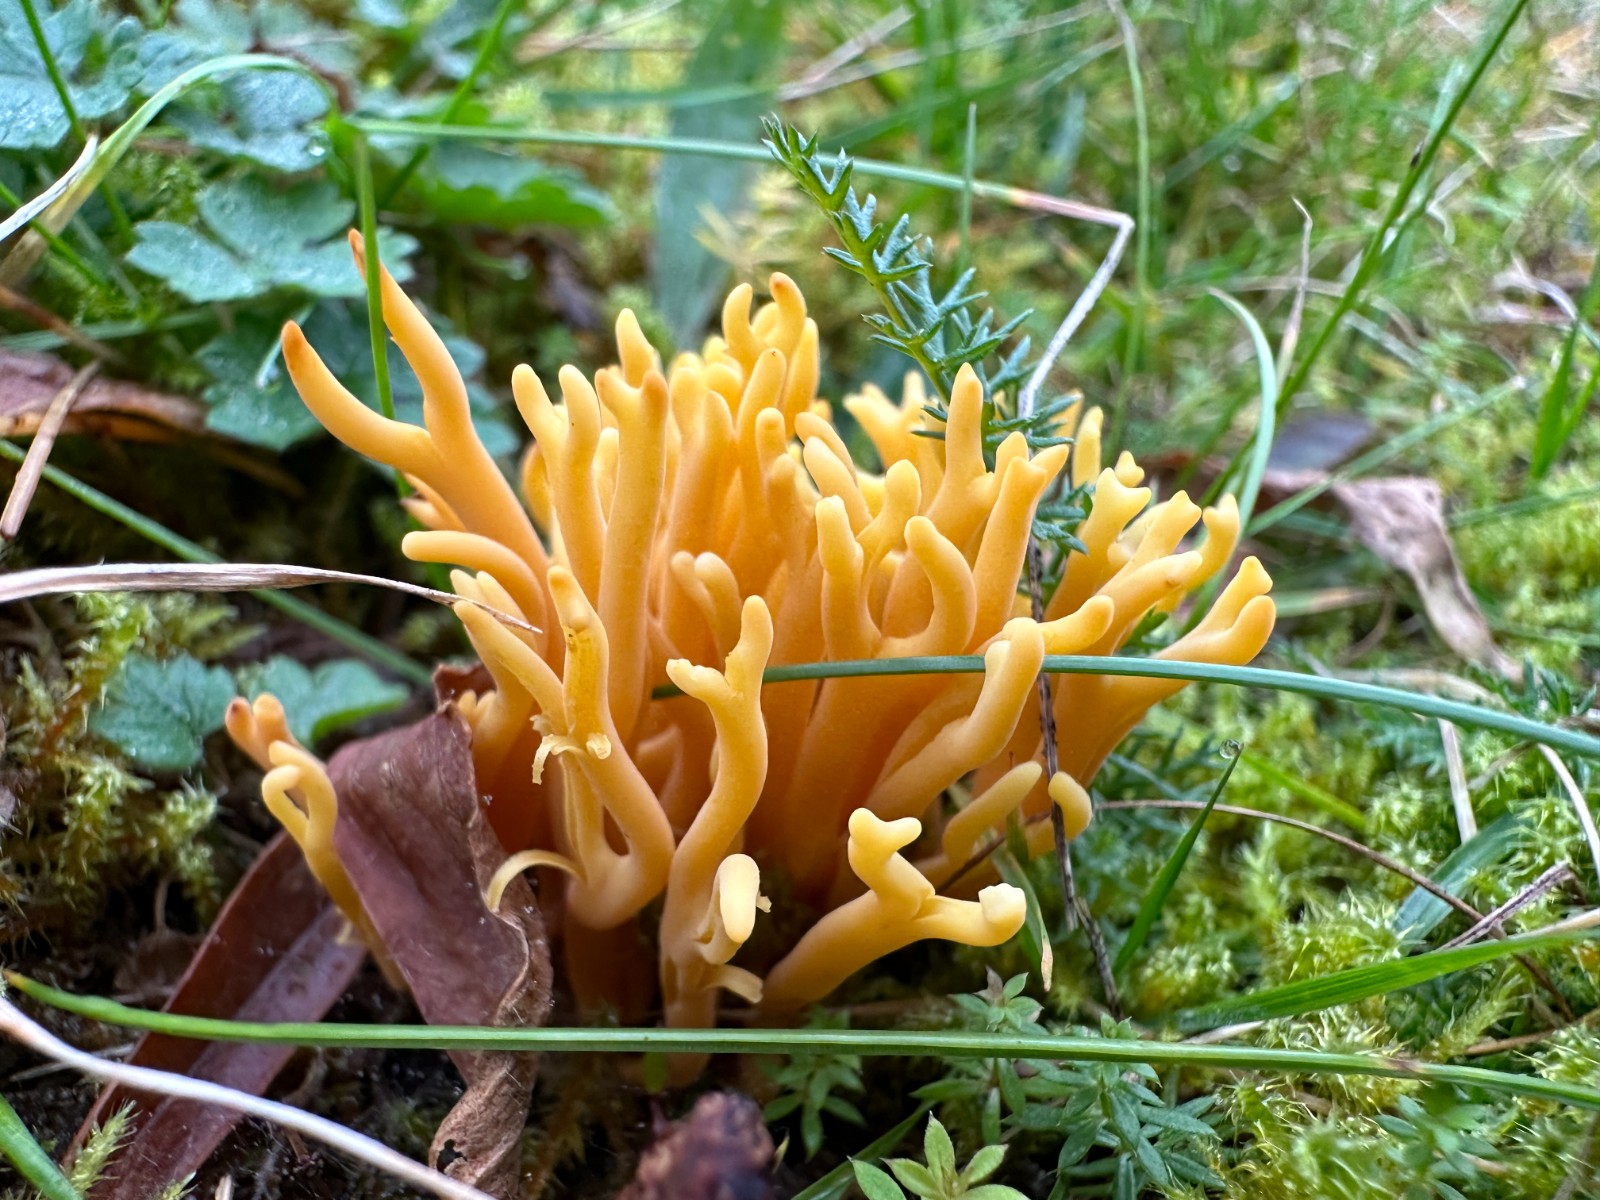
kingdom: Fungi
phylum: Basidiomycota
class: Agaricomycetes
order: Agaricales
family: Clavariaceae
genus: Clavulinopsis
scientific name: Clavulinopsis corniculata
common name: eng-køllesvamp
